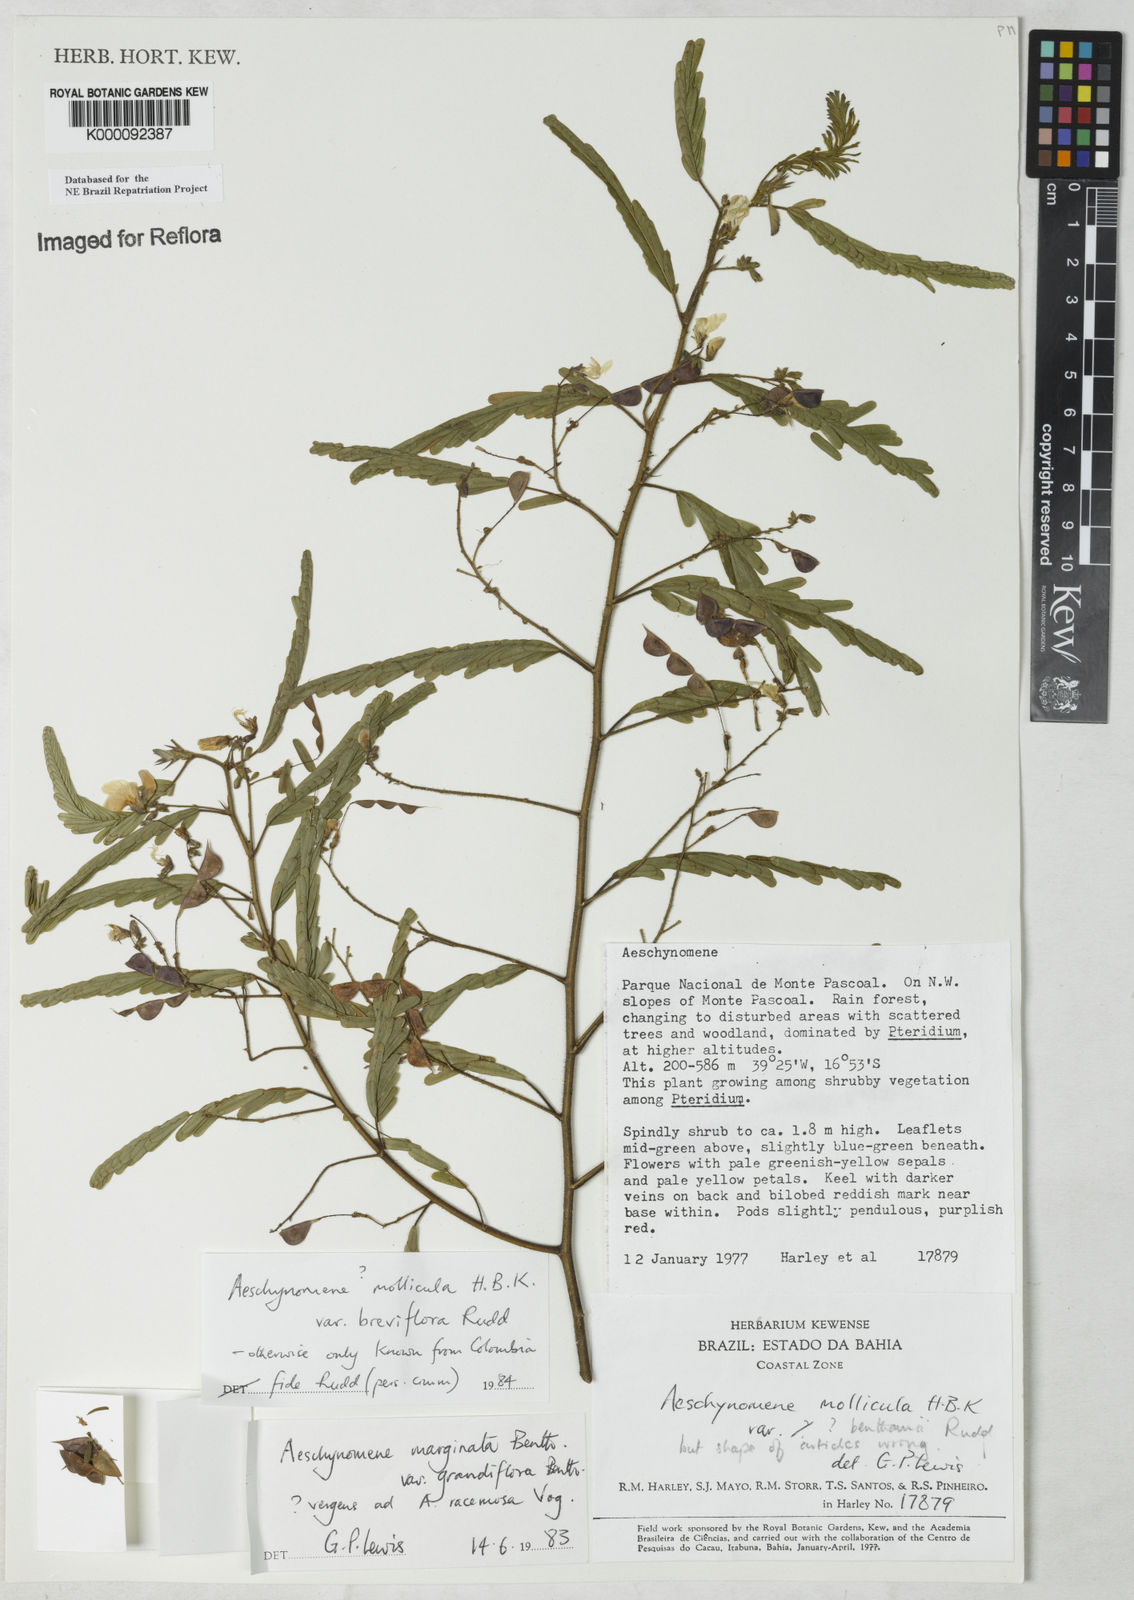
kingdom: Plantae
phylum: Tracheophyta
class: Magnoliopsida
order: Fabales
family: Fabaceae
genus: Ctenodon
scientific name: Ctenodon molliculus
